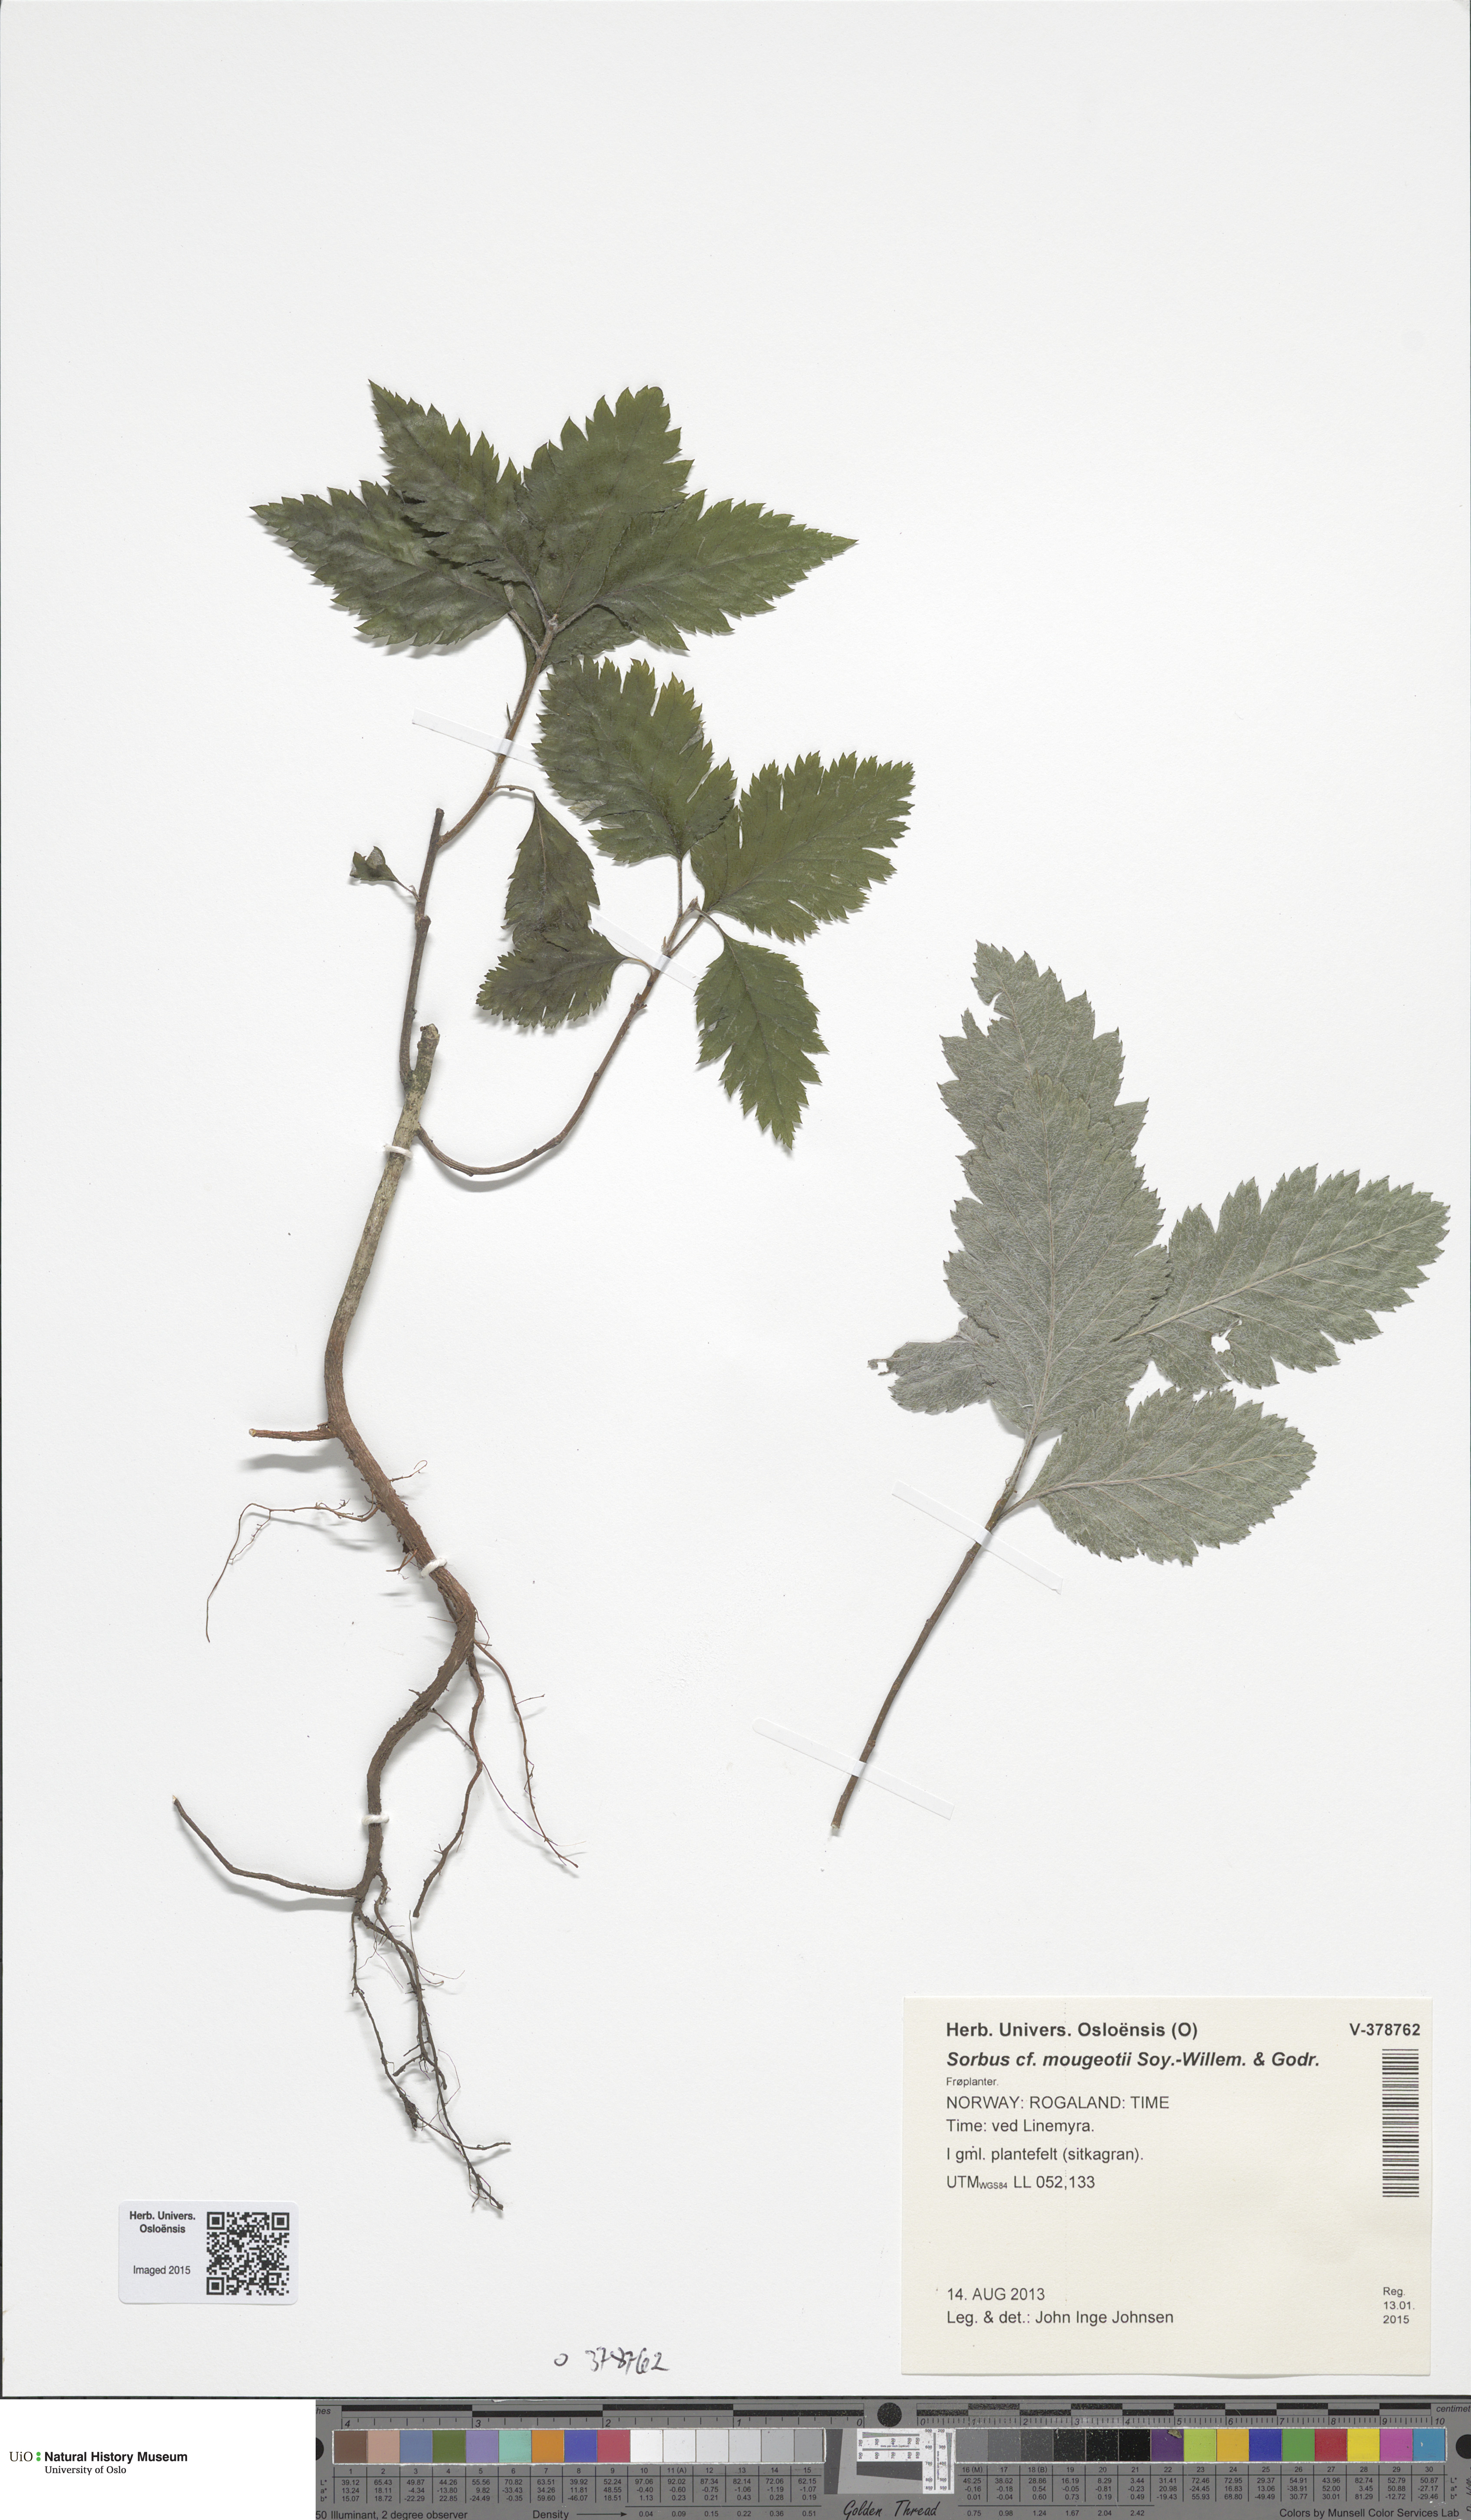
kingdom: Plantae
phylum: Tracheophyta
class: Magnoliopsida
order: Rosales
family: Rosaceae
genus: Hedlundia
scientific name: Hedlundia mougeotii
